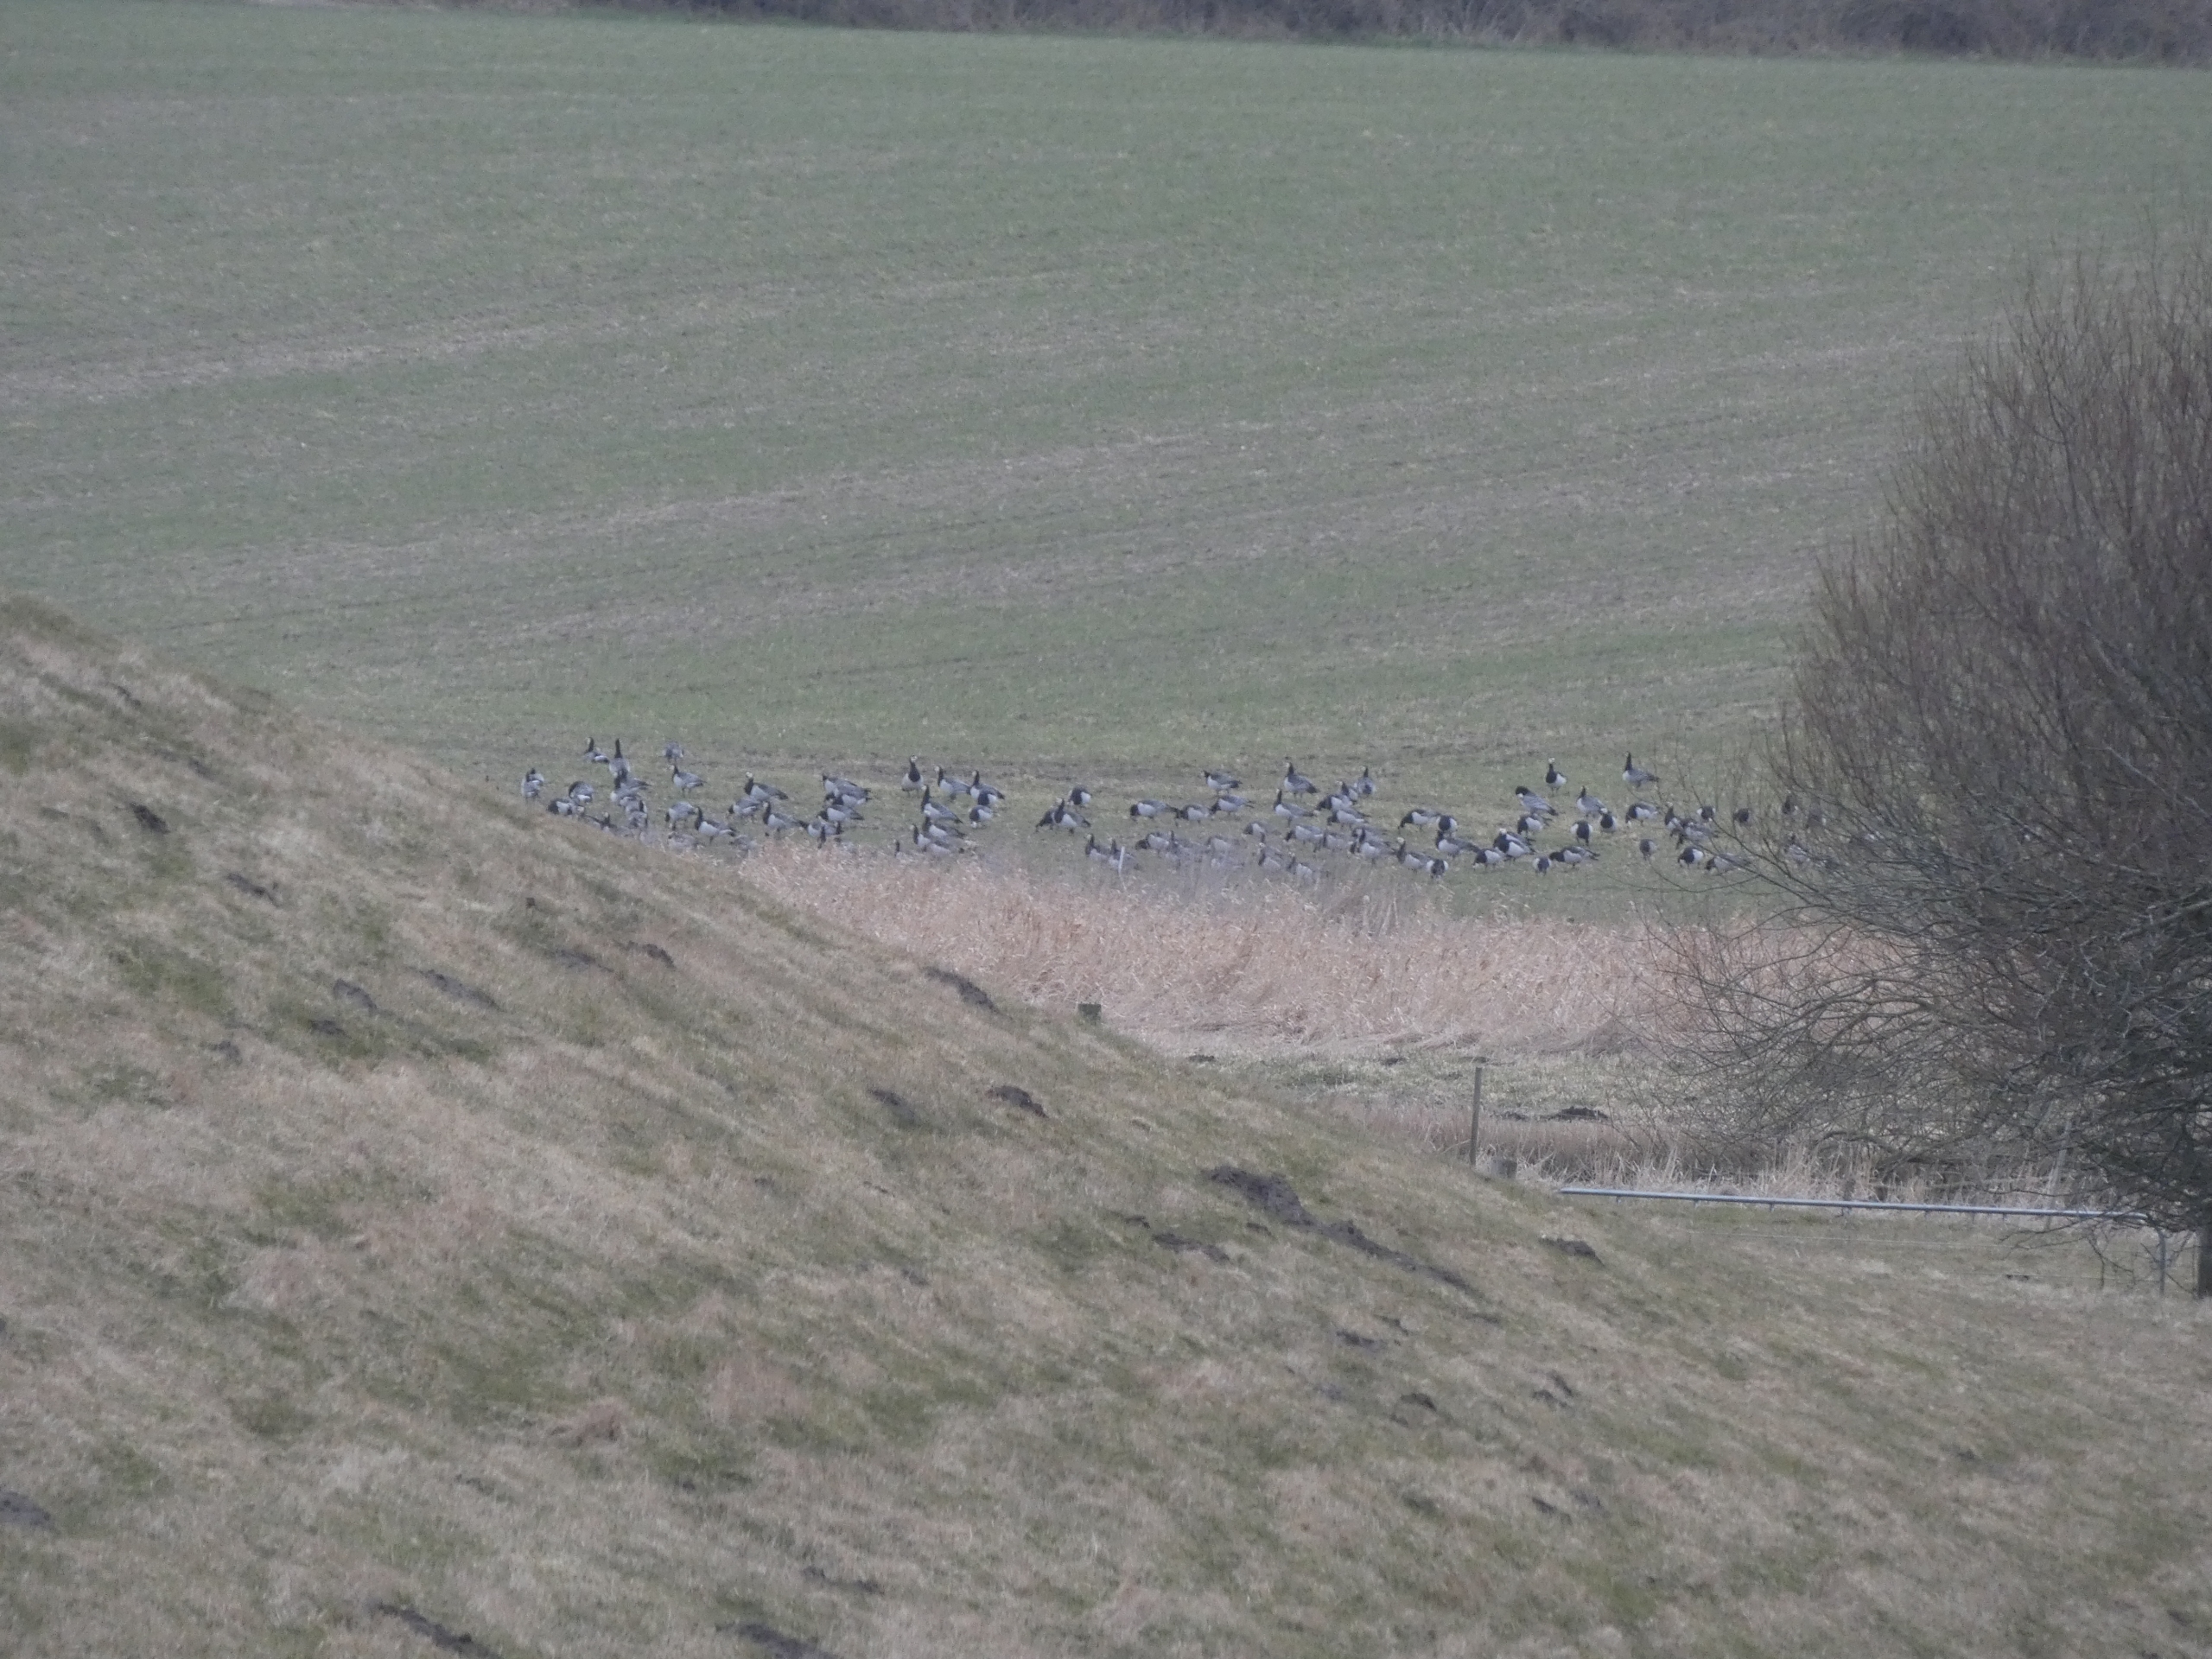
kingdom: Animalia
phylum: Chordata
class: Aves
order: Anseriformes
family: Anatidae
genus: Branta
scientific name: Branta leucopsis
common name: Bramgås
